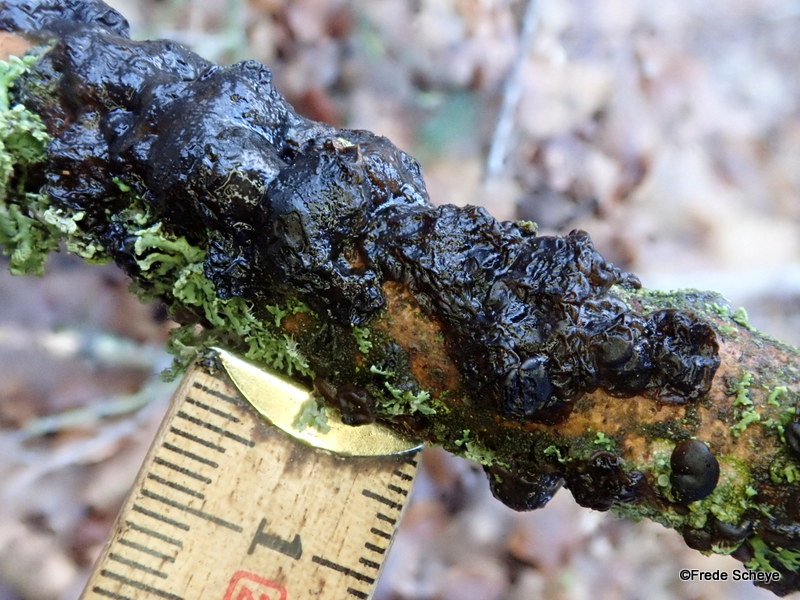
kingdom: Fungi
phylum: Basidiomycota
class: Agaricomycetes
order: Auriculariales
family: Auriculariaceae
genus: Exidia
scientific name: Exidia nigricans
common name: almindelig bævretop
